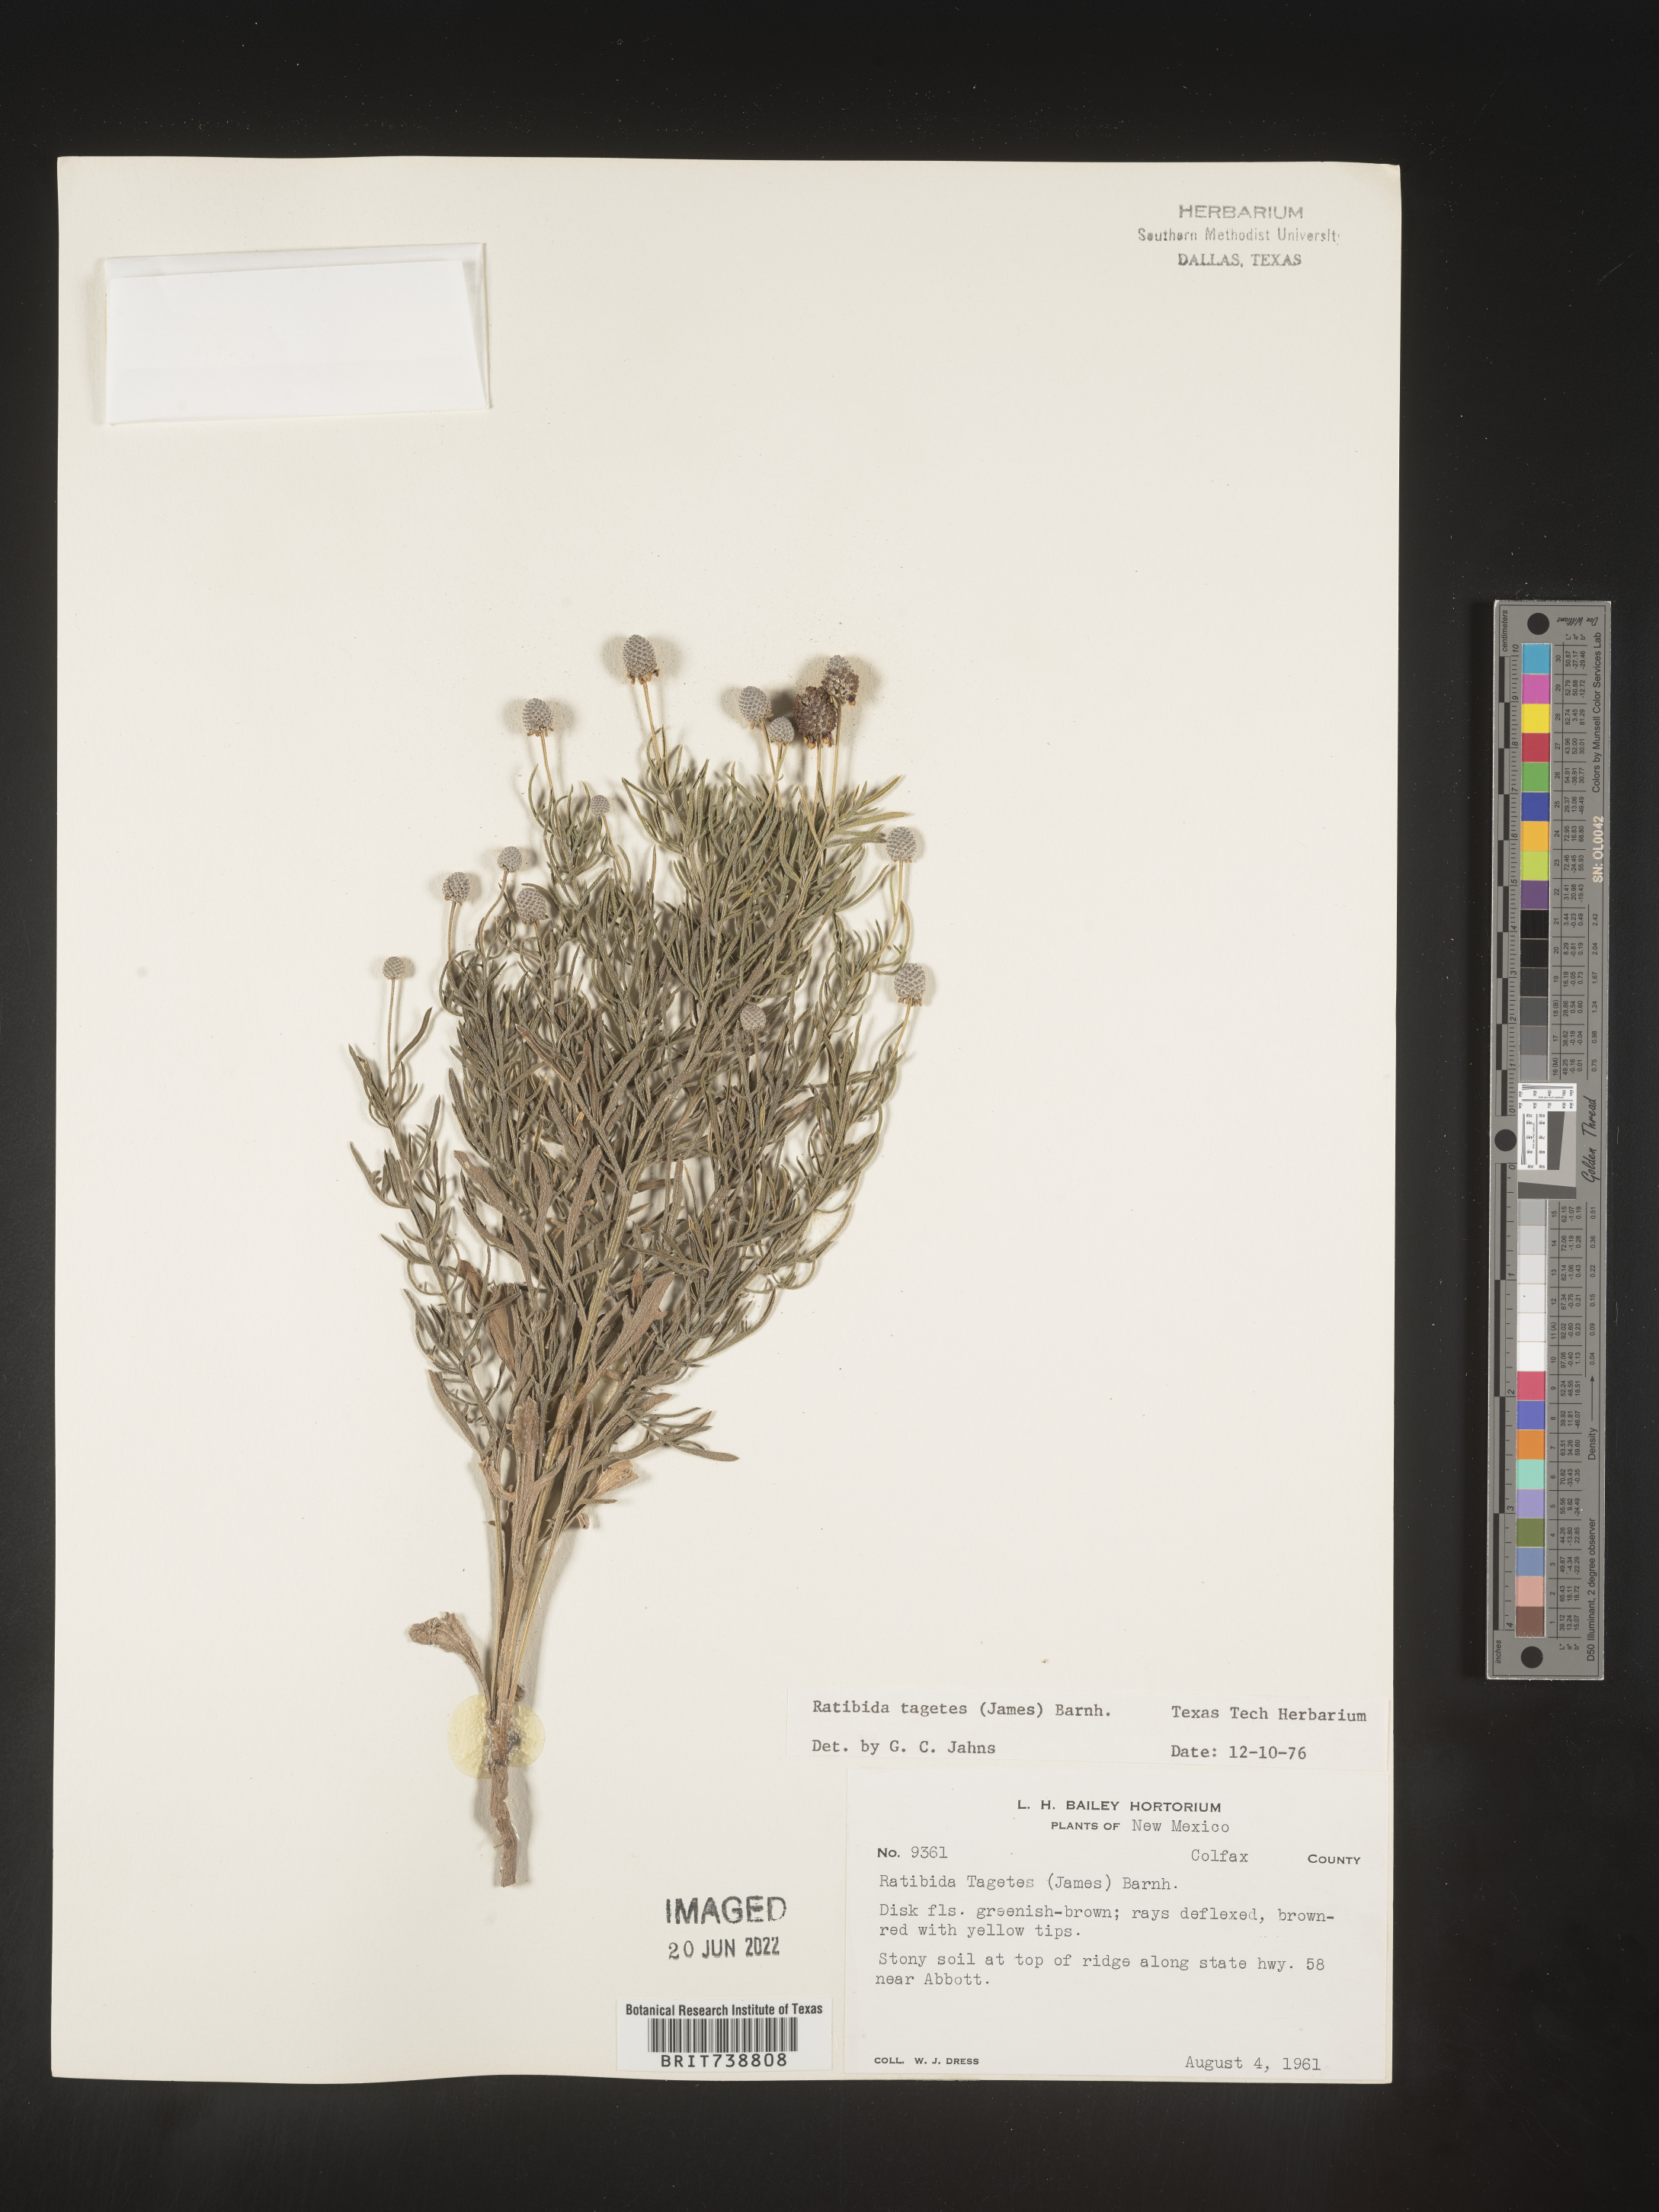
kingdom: Plantae
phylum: Tracheophyta
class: Magnoliopsida
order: Asterales
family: Asteraceae
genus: Ratibida
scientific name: Ratibida tagetes
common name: Green mexican-hat
